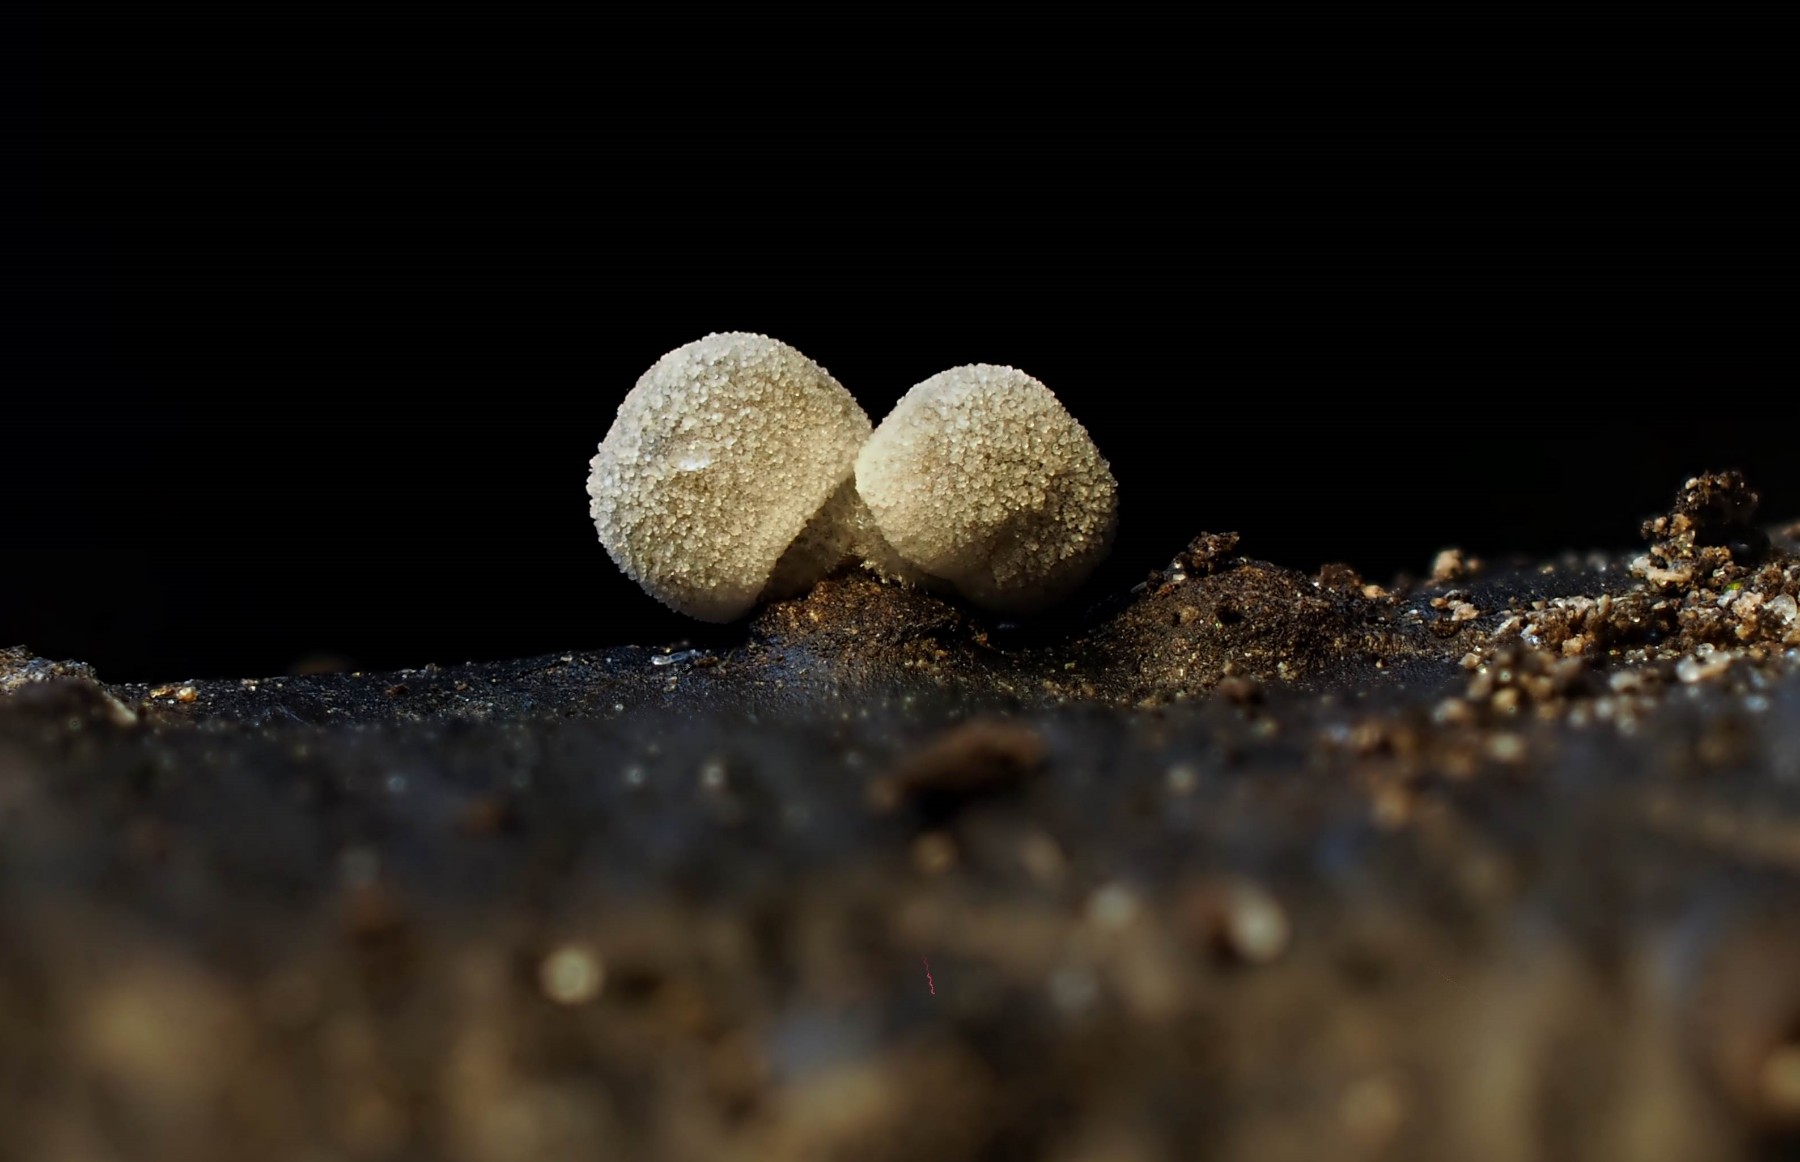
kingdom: Fungi
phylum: Basidiomycota
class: Agaricomycetes
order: Agaricales
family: Mycenaceae
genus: Mycena
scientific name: Mycena tenerrima
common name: pudret huesvamp
